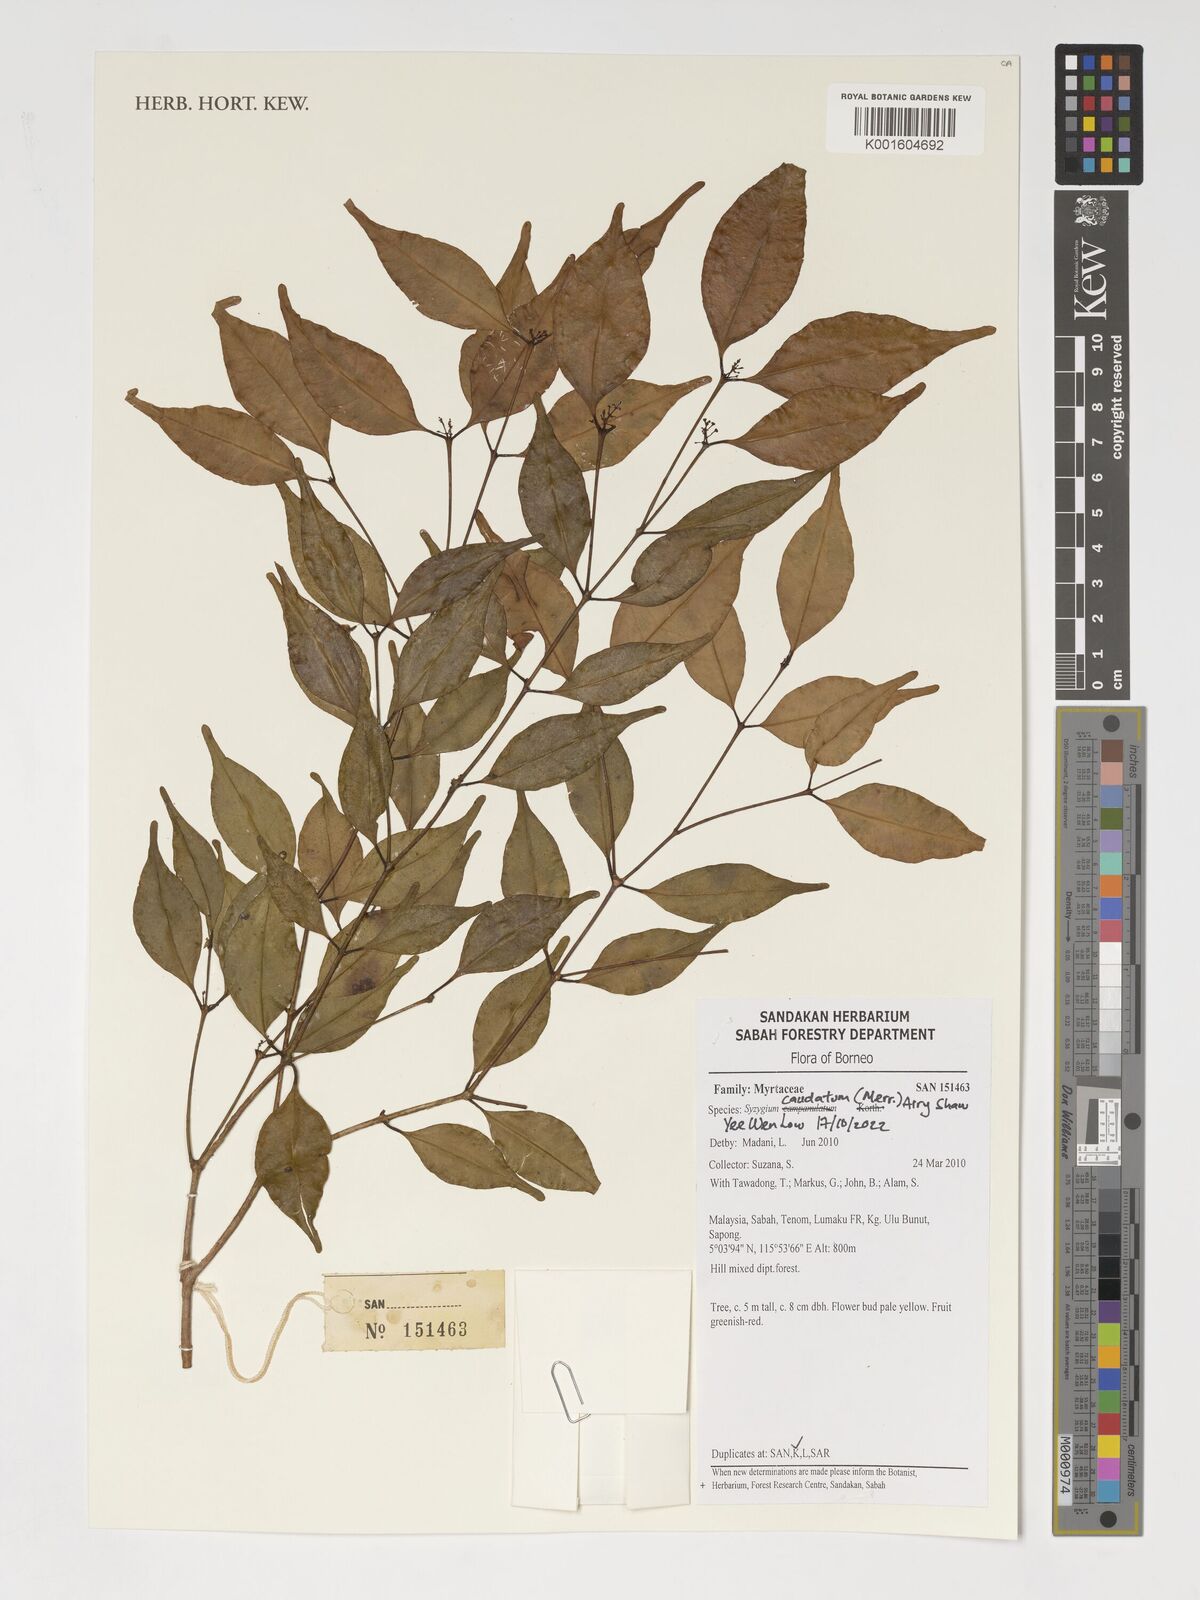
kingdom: Plantae
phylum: Tracheophyta
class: Magnoliopsida
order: Myrtales
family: Myrtaceae
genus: Syzygium
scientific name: Syzygium caudatum
